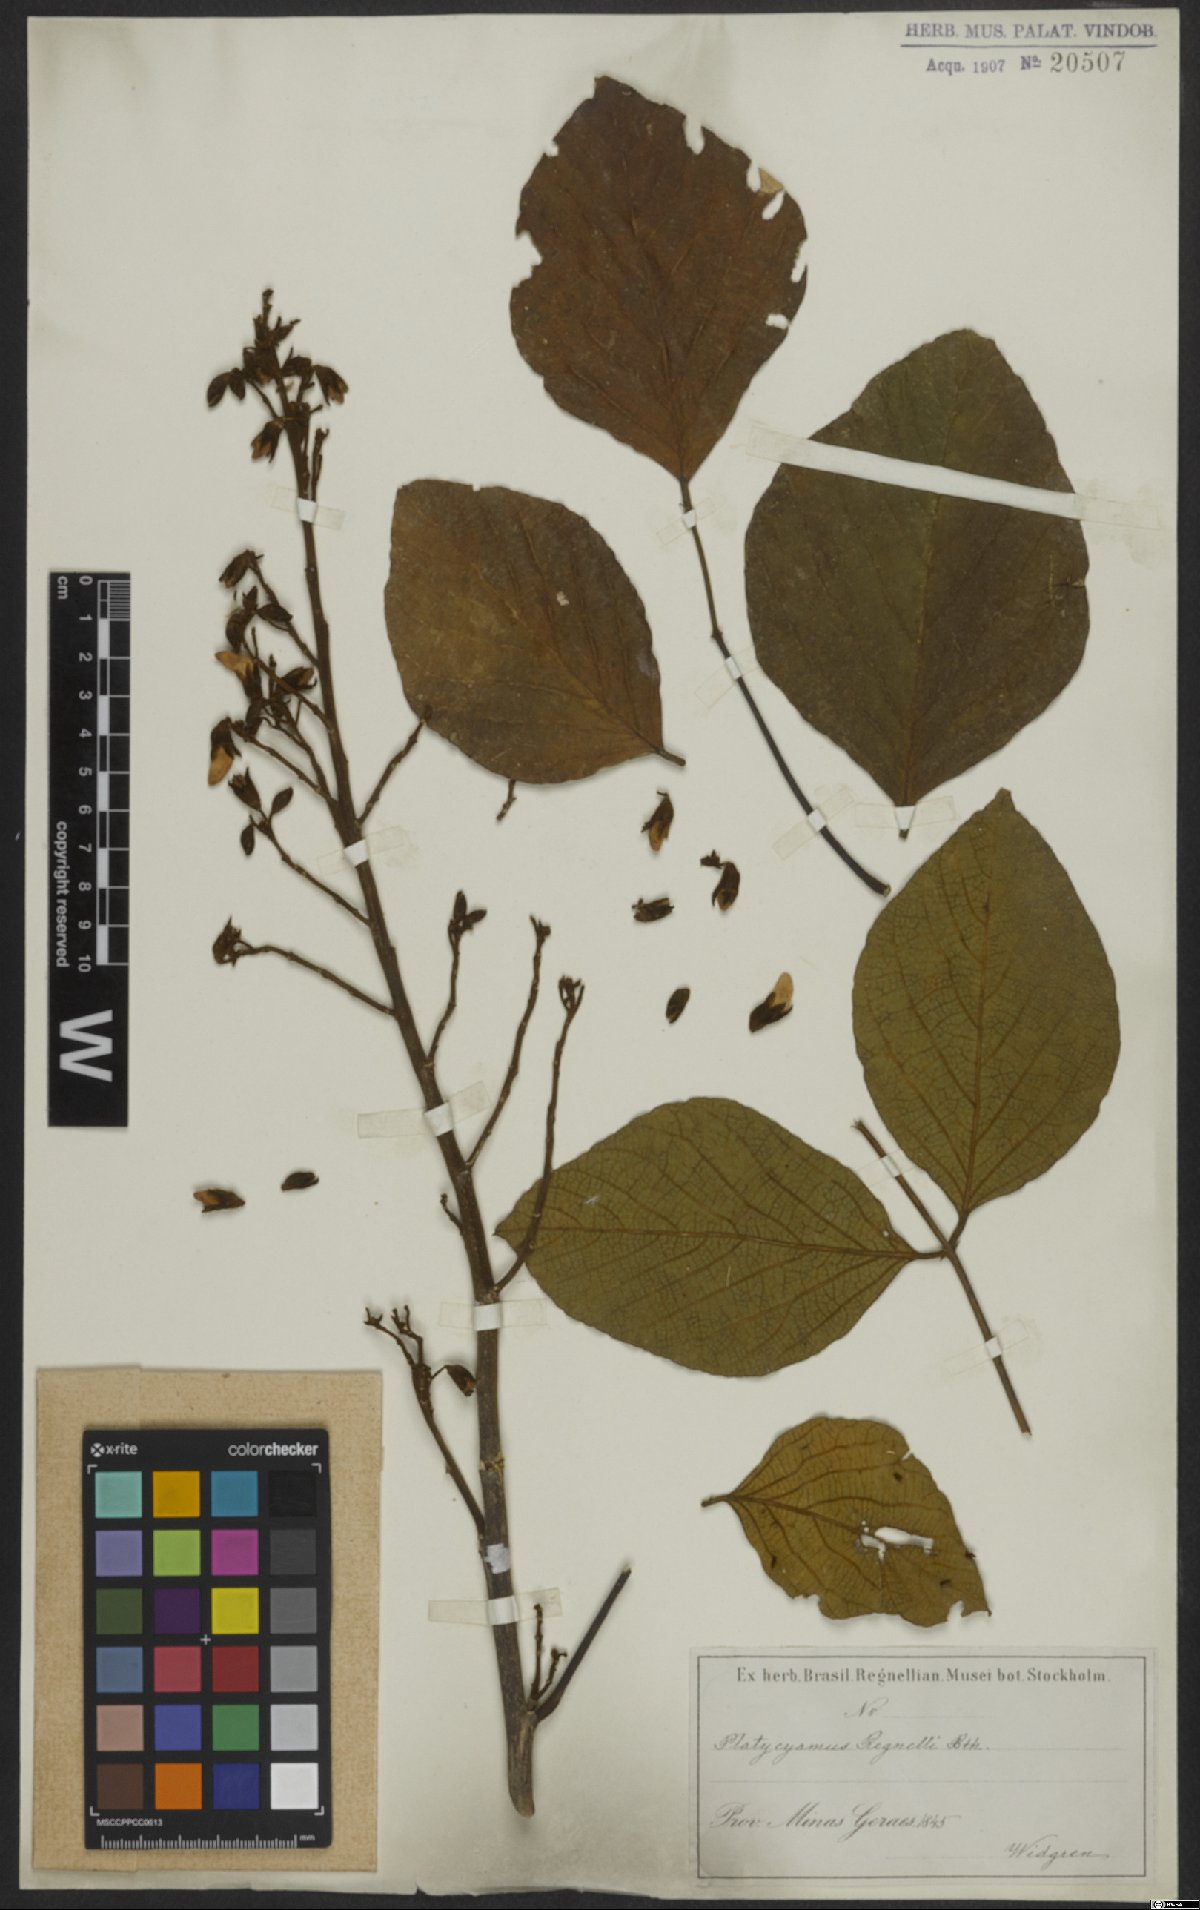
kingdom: Plantae
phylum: Tracheophyta
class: Magnoliopsida
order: Fabales
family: Fabaceae
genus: Platycyamus
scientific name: Platycyamus regnellii
